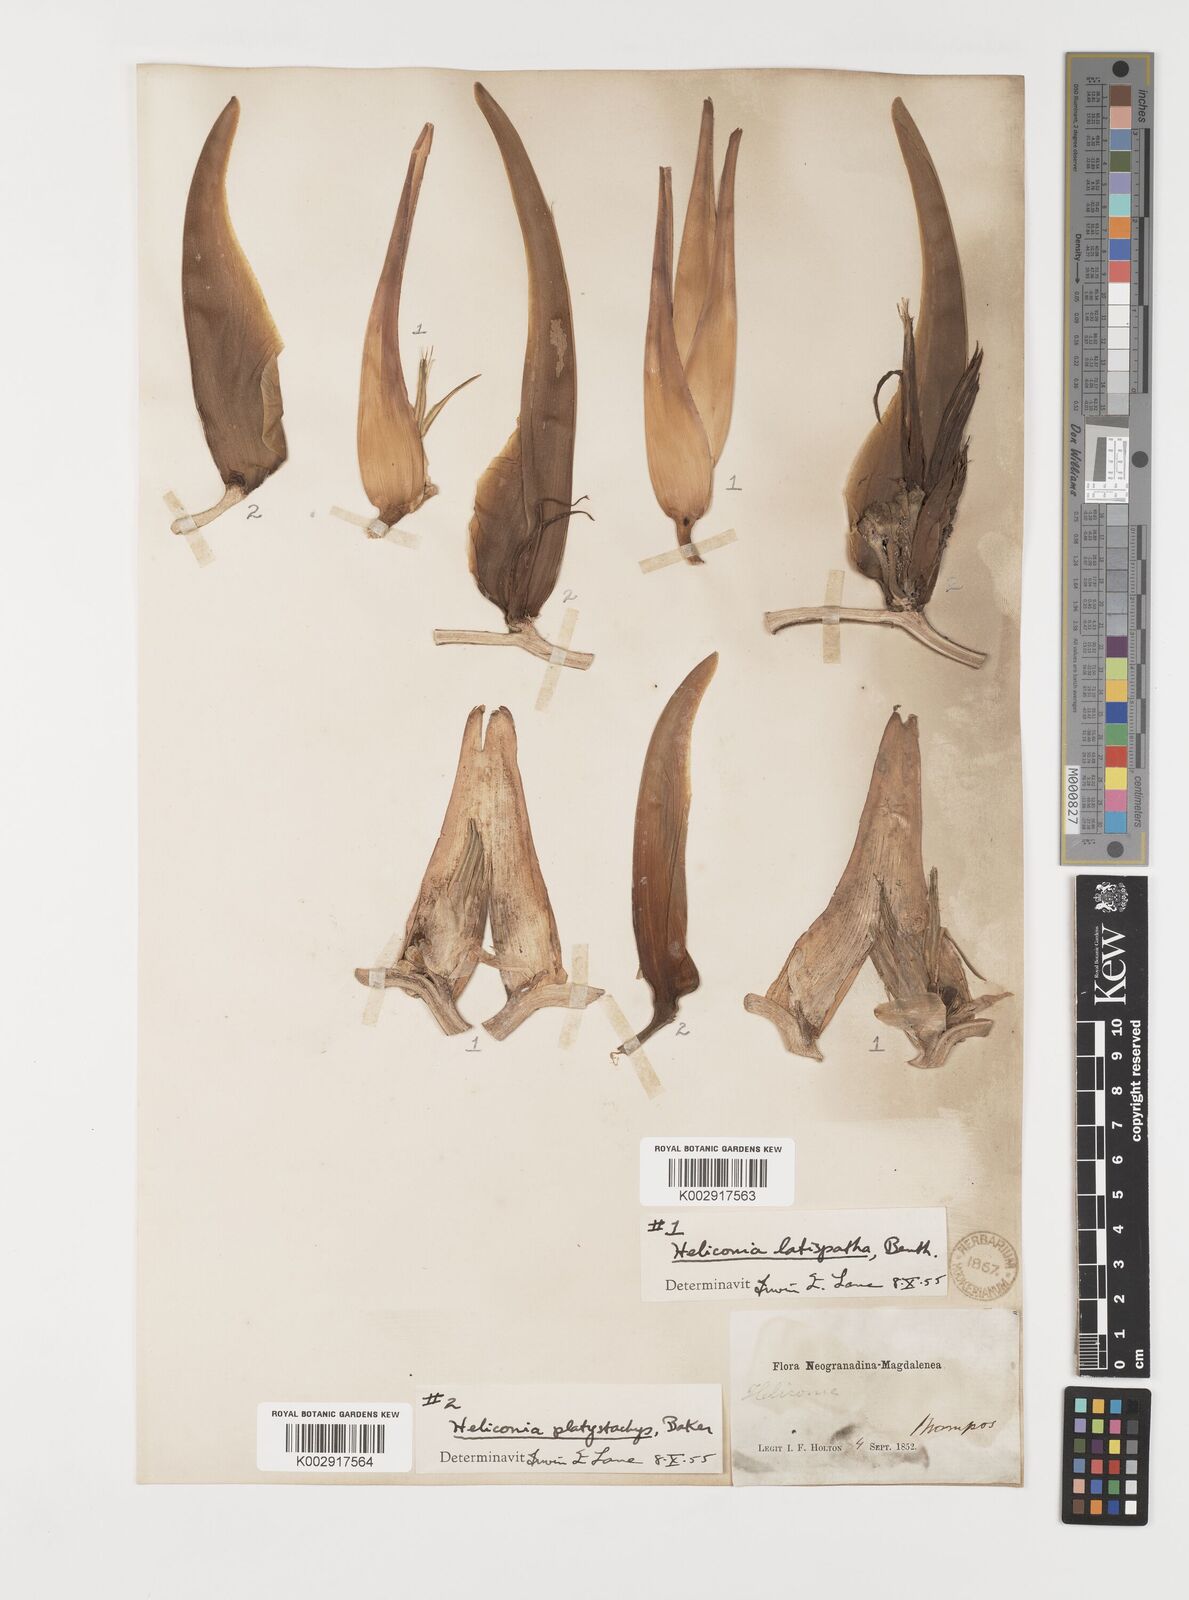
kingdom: Plantae
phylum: Tracheophyta
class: Liliopsida
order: Zingiberales
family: Heliconiaceae
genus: Heliconia
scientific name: Heliconia latispatha
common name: Expanded lobsterclaw
